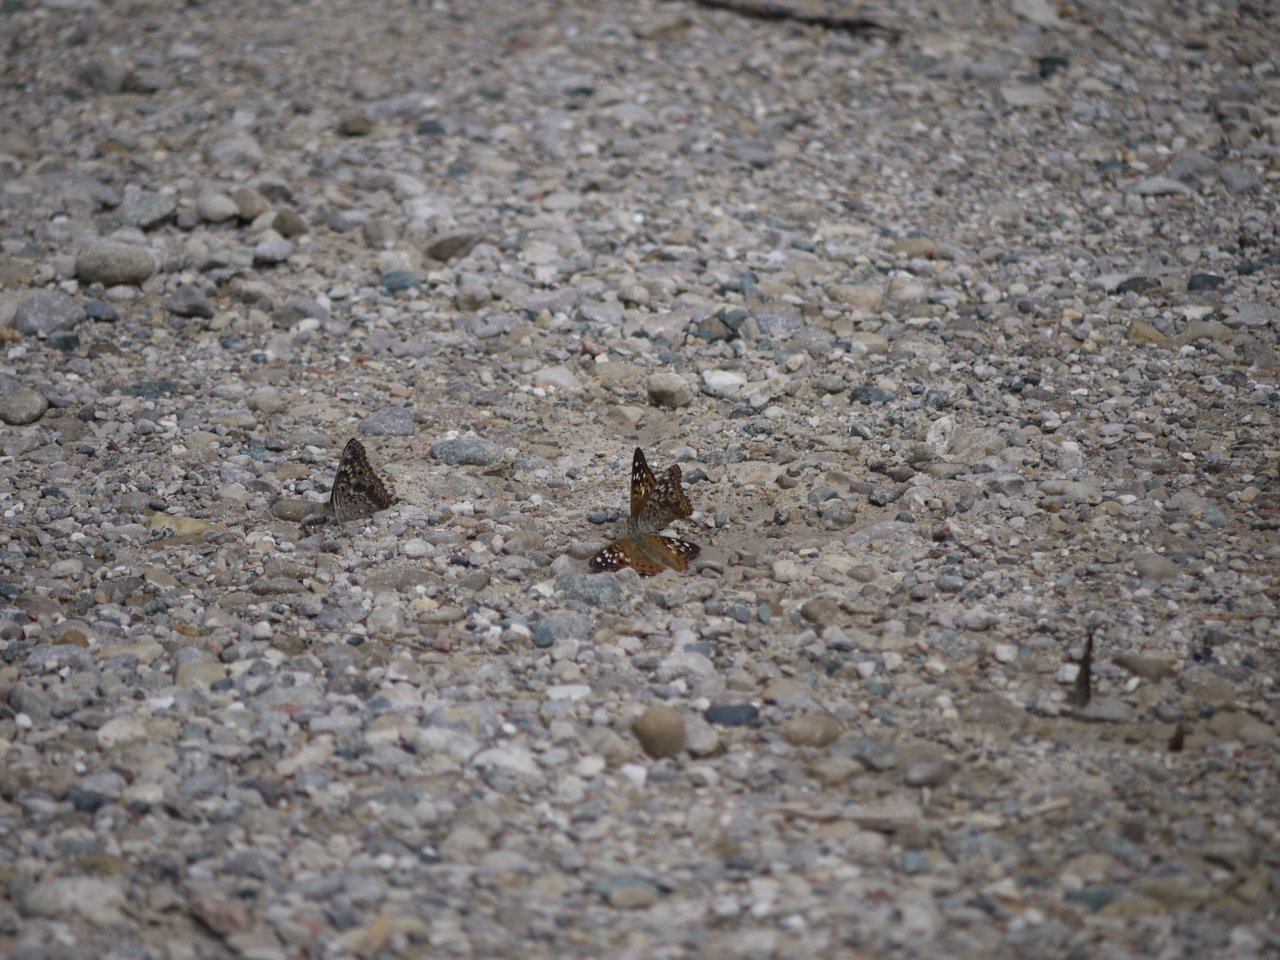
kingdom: Animalia
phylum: Arthropoda
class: Insecta
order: Lepidoptera
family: Nymphalidae
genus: Asterocampa
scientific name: Asterocampa celtis
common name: Hackberry Emperor
